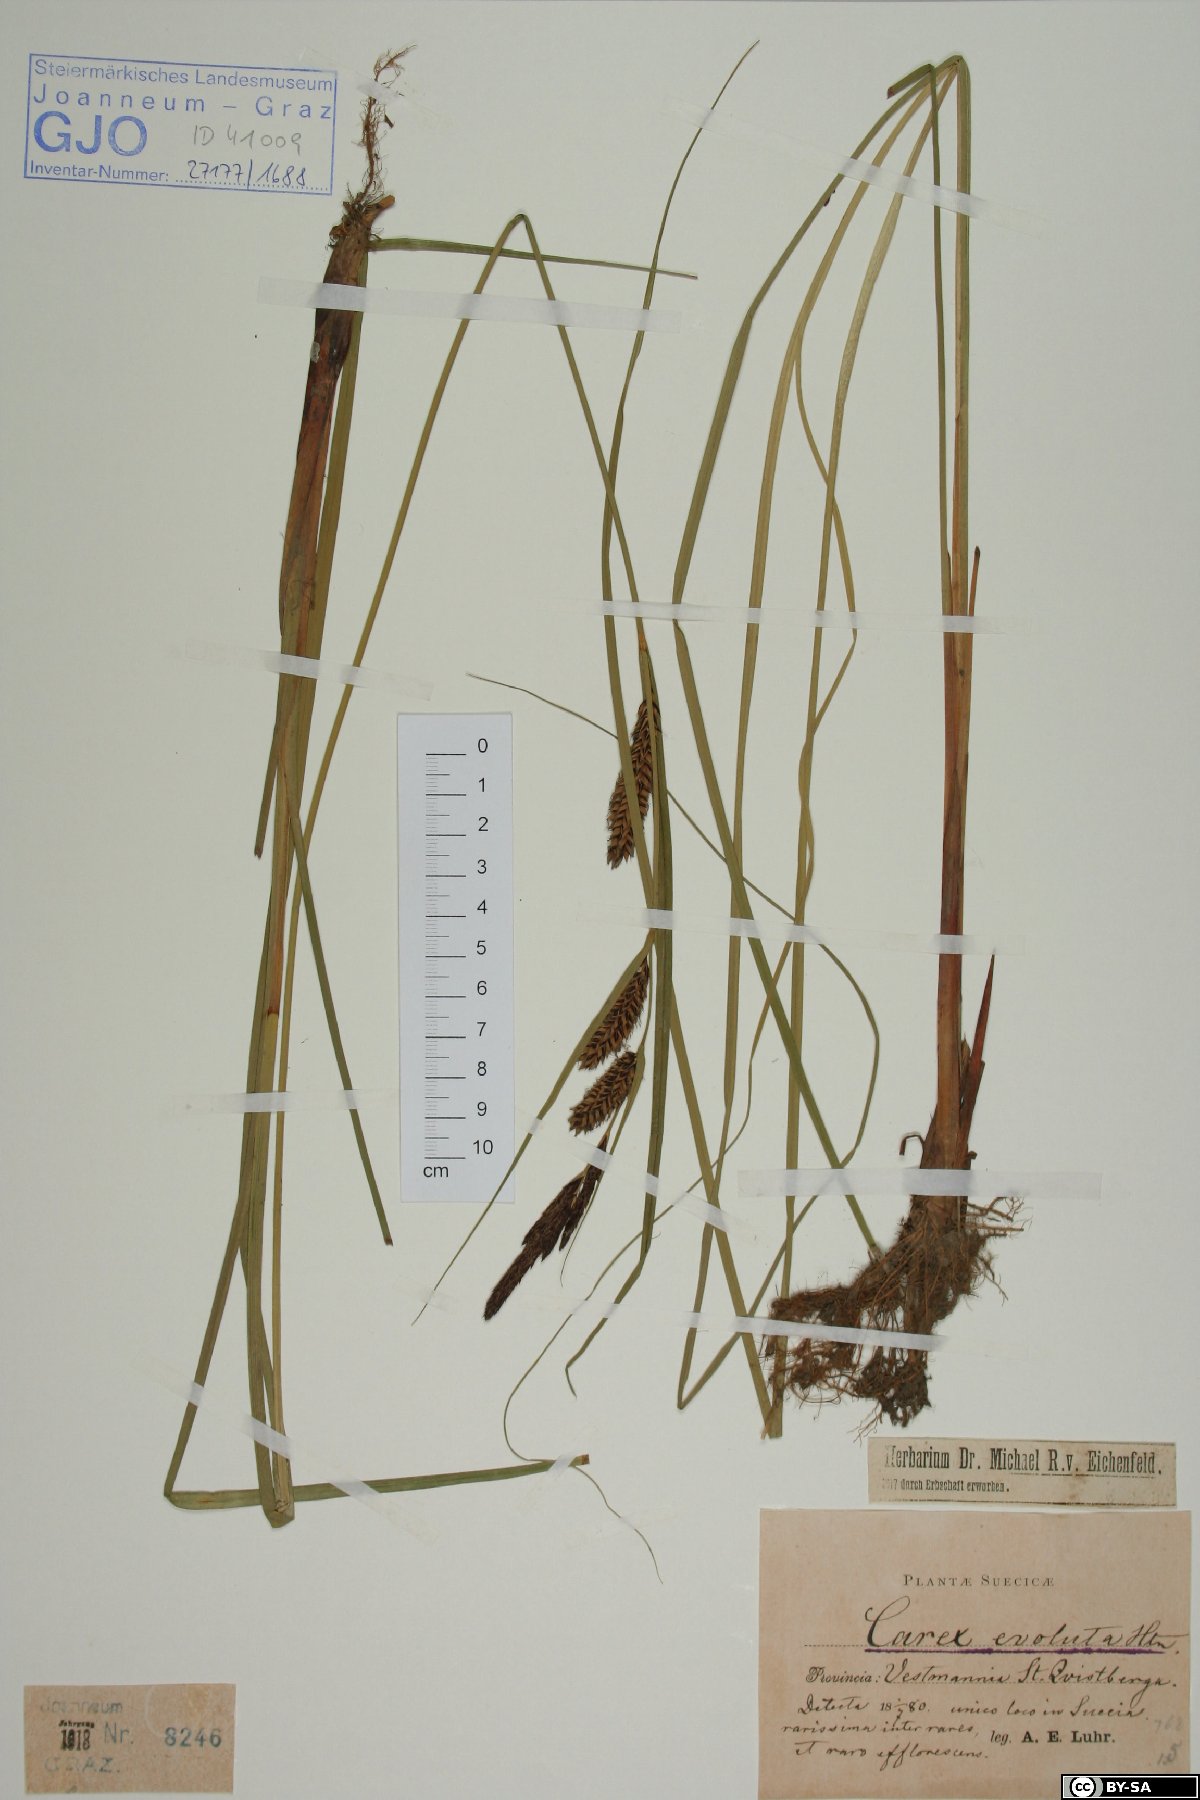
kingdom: Plantae
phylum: Tracheophyta
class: Liliopsida
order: Poales
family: Cyperaceae
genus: Carex
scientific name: Carex evoluta
